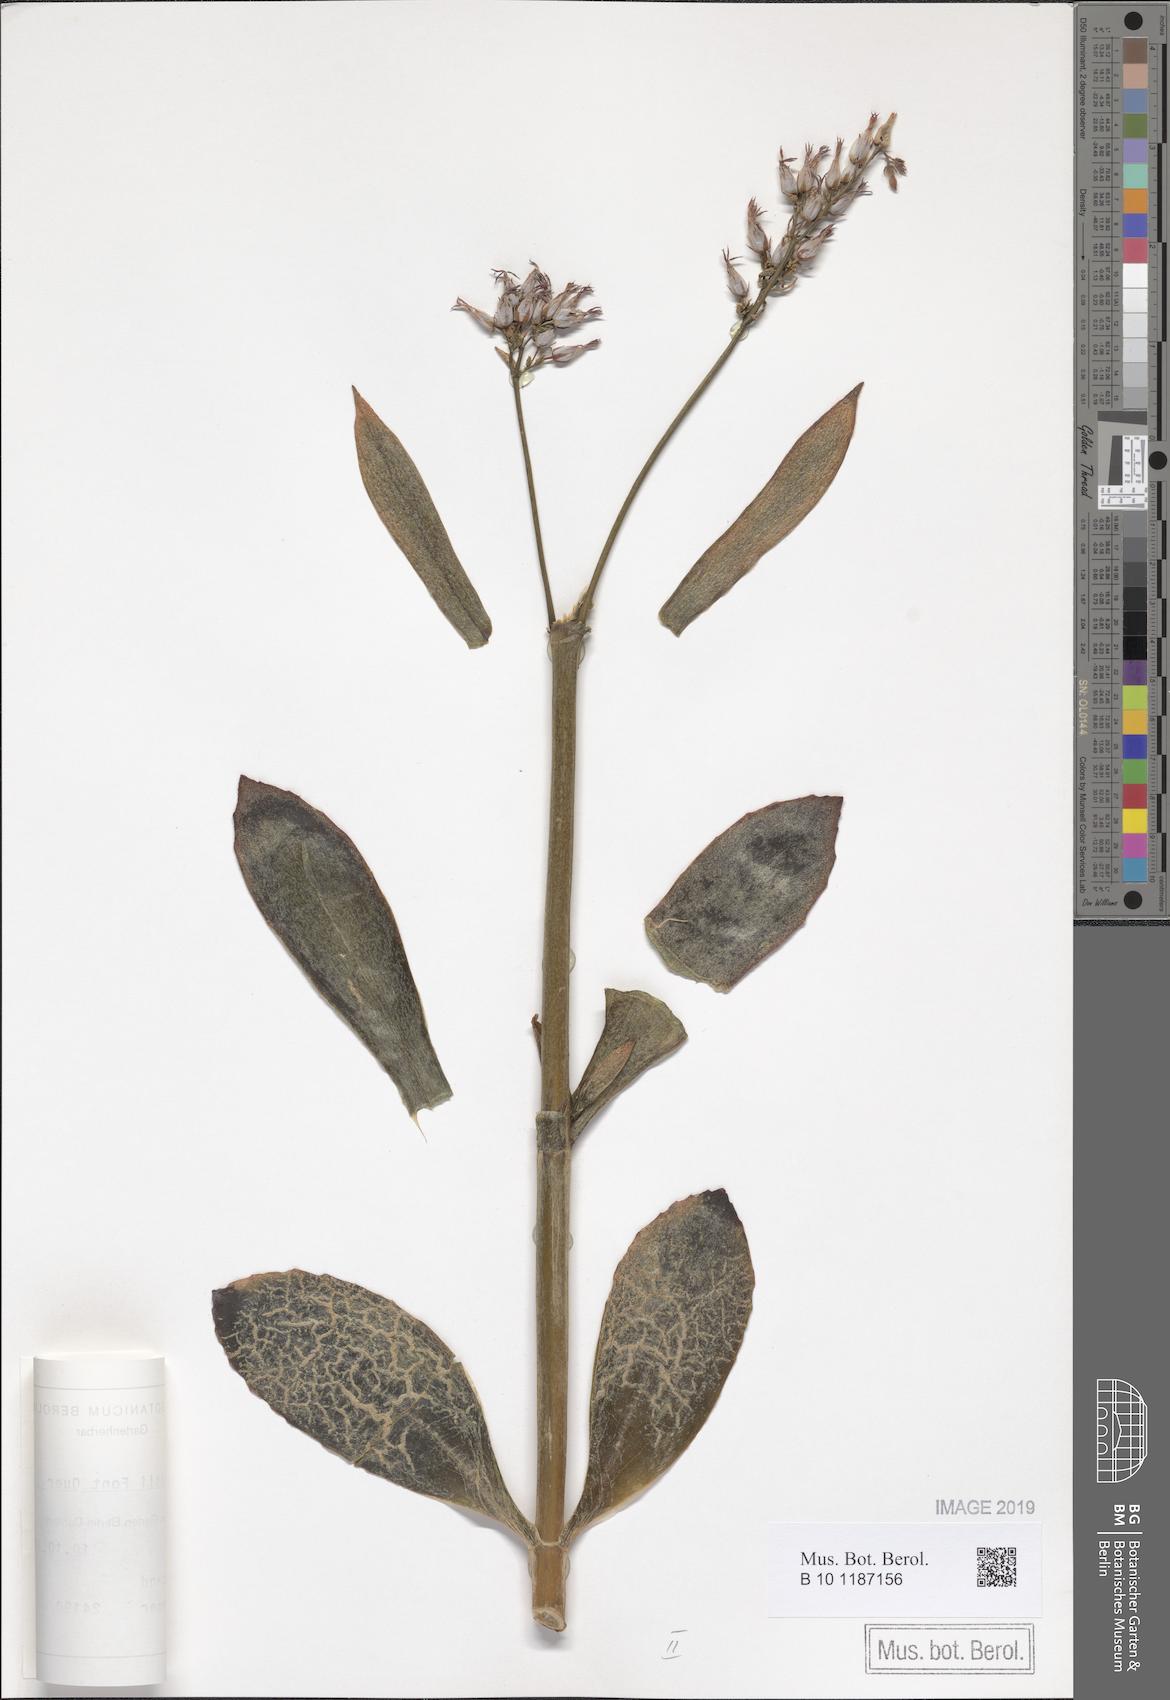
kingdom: Plantae
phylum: Tracheophyta
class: Magnoliopsida
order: Saxifragales
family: Crassulaceae
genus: Kalanchoe
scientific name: Kalanchoe faustii
